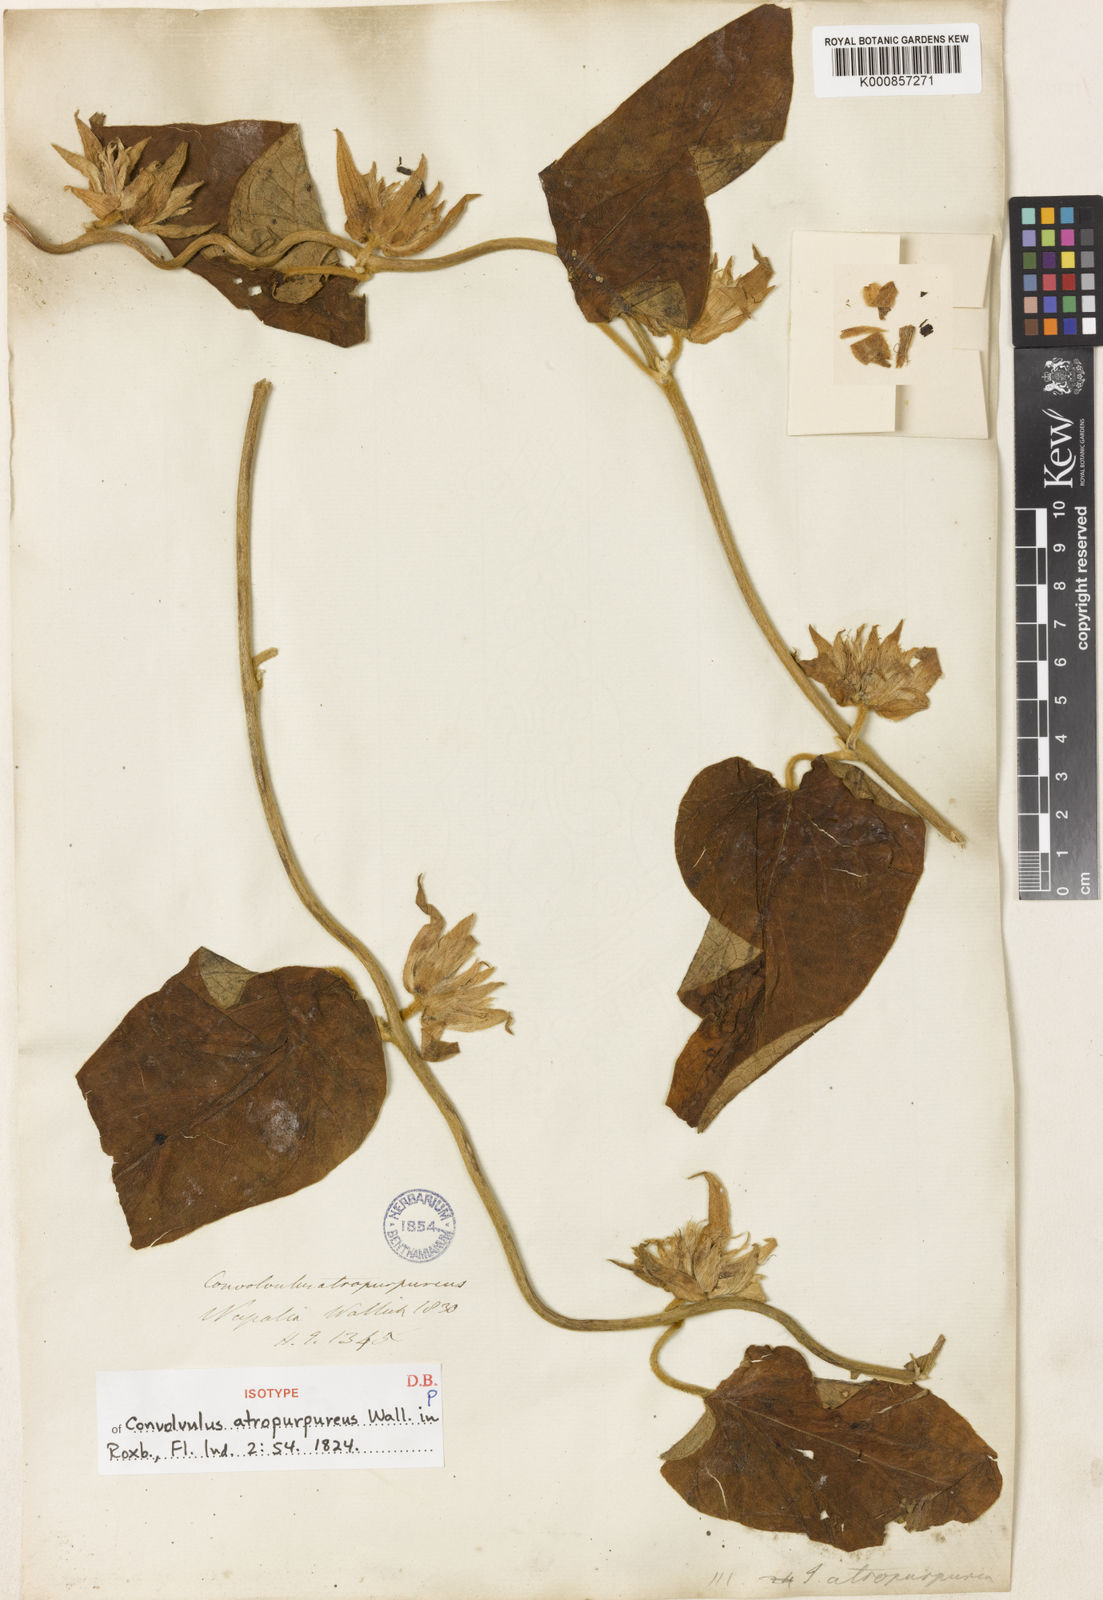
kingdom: Plantae
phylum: Tracheophyta
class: Magnoliopsida
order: Solanales
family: Convolvulaceae
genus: Argyreia
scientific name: Argyreia atropurpurea
